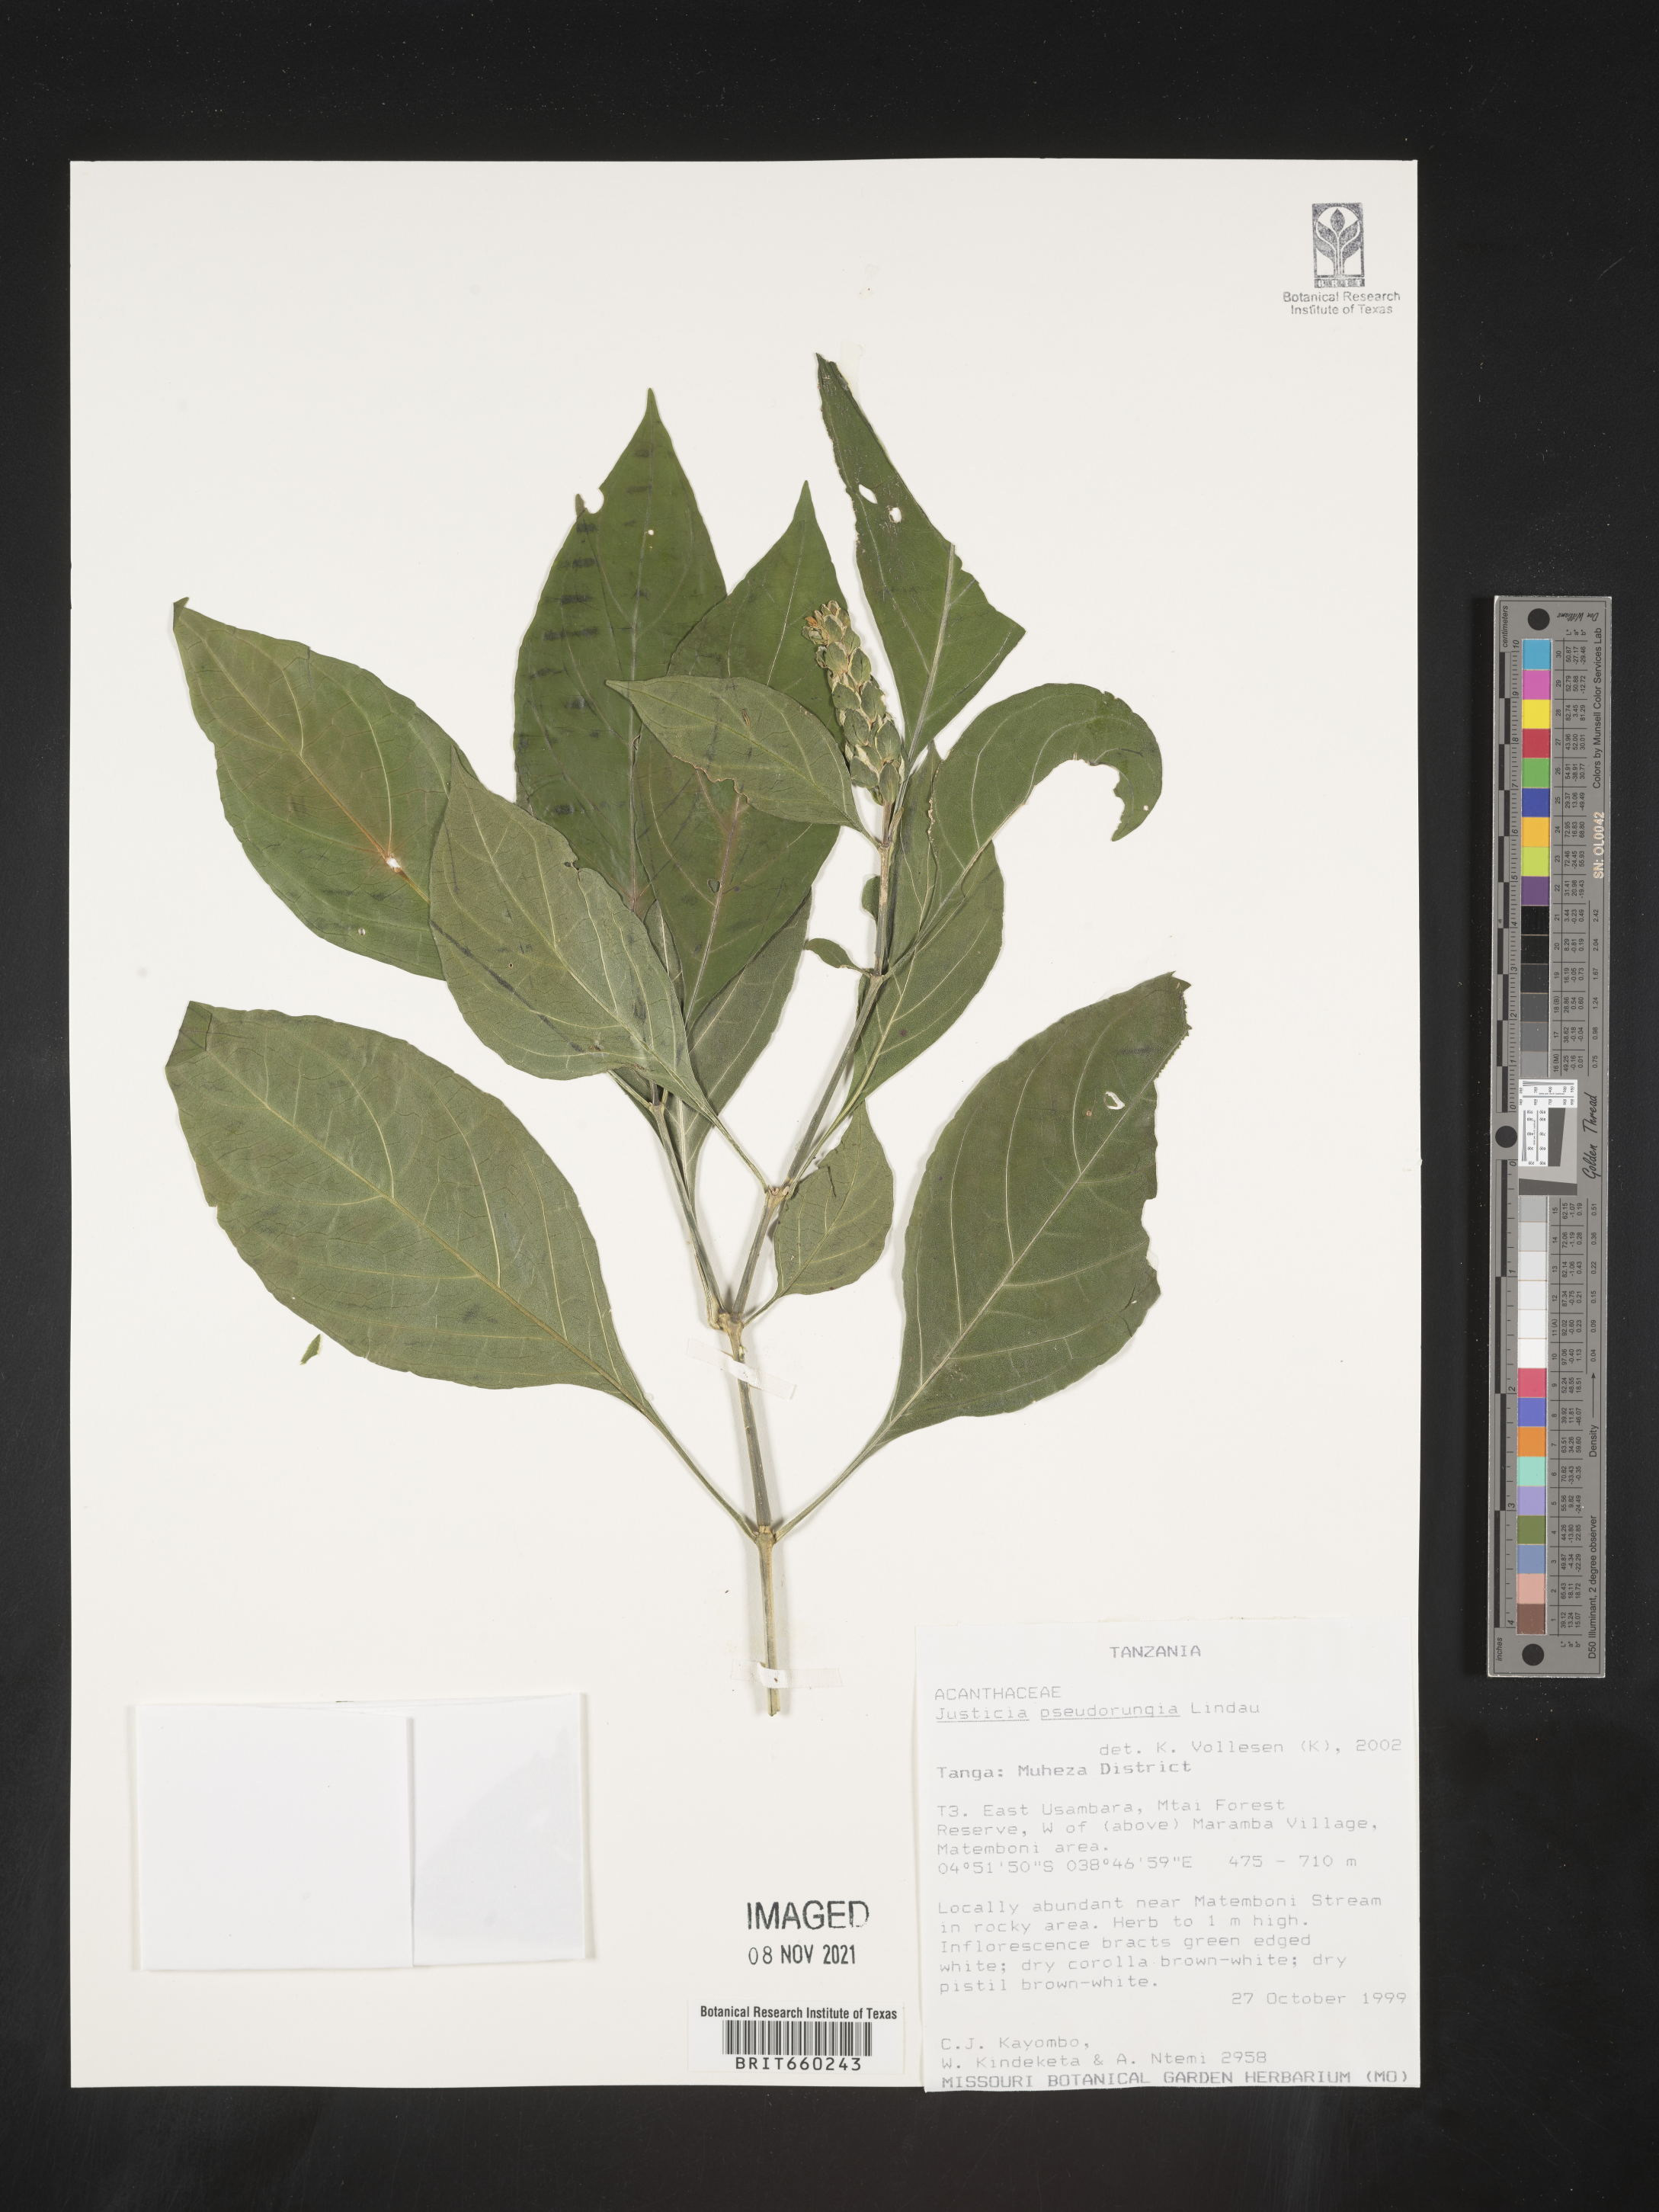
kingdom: Plantae
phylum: Tracheophyta
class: Magnoliopsida
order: Lamiales
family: Acanthaceae
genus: Justicia
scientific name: Justicia
